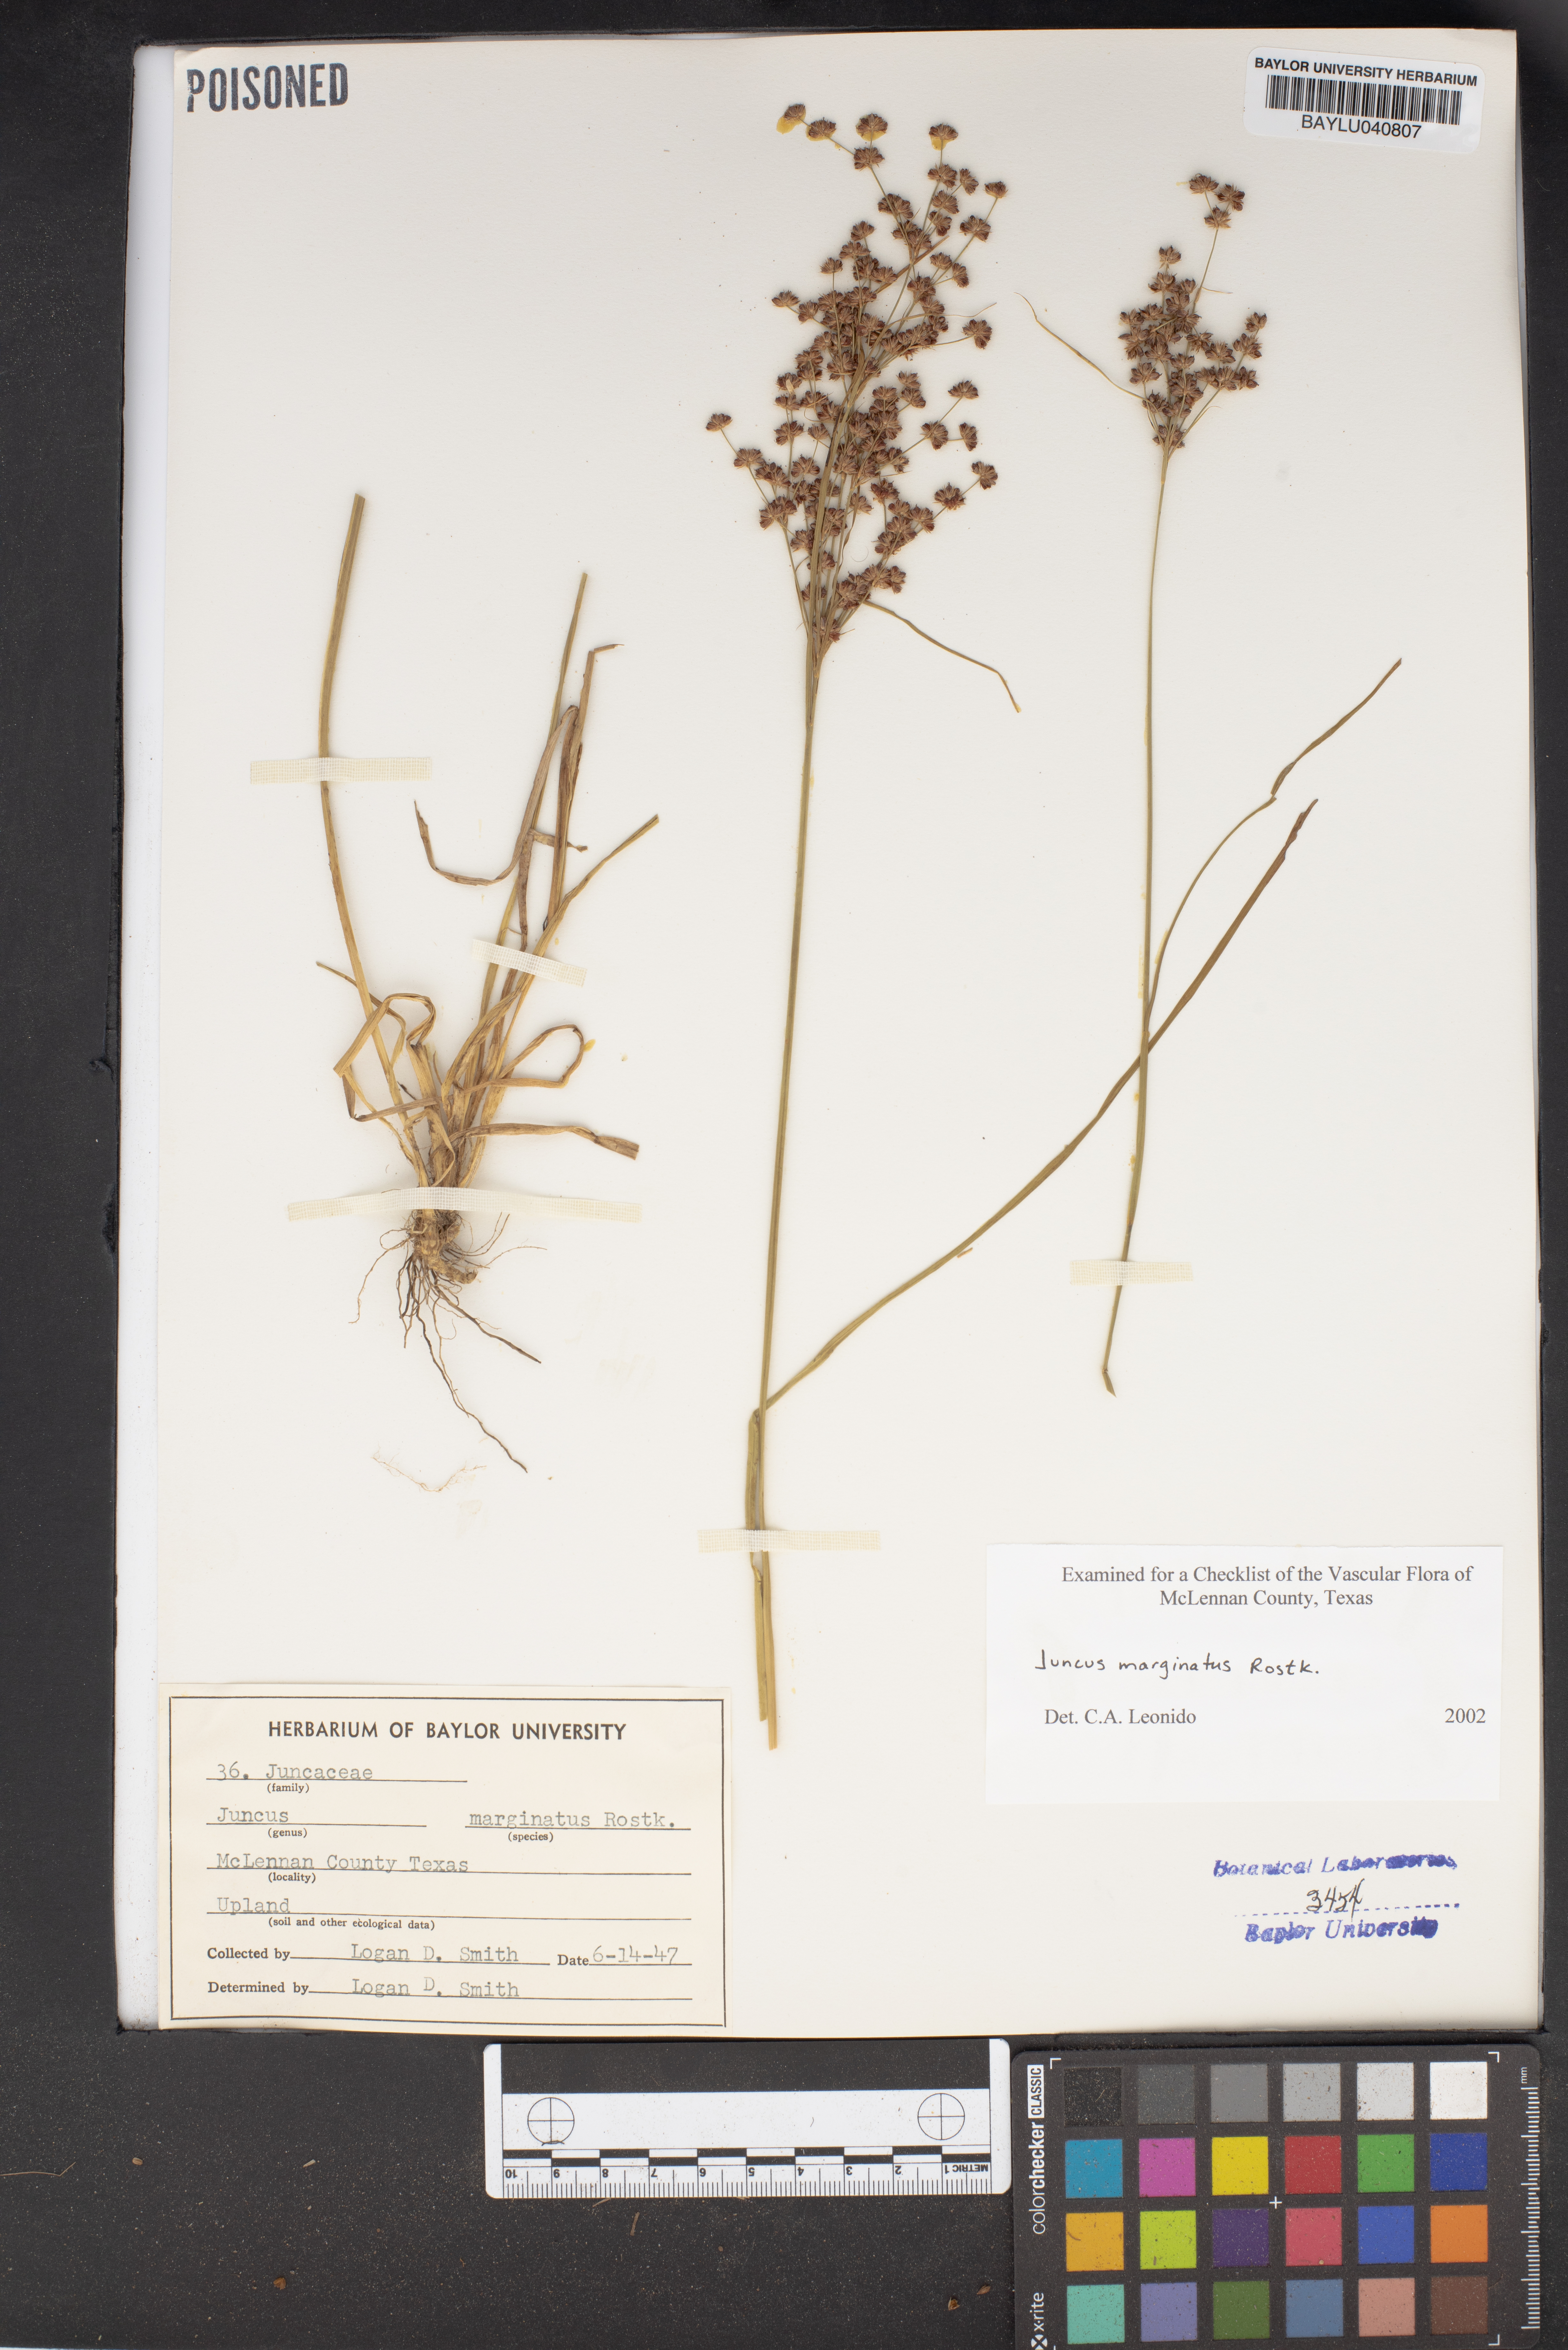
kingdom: Plantae
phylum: Tracheophyta
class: Liliopsida
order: Poales
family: Juncaceae
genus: Juncus
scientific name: Juncus marginatus
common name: Grass-leaf rush
